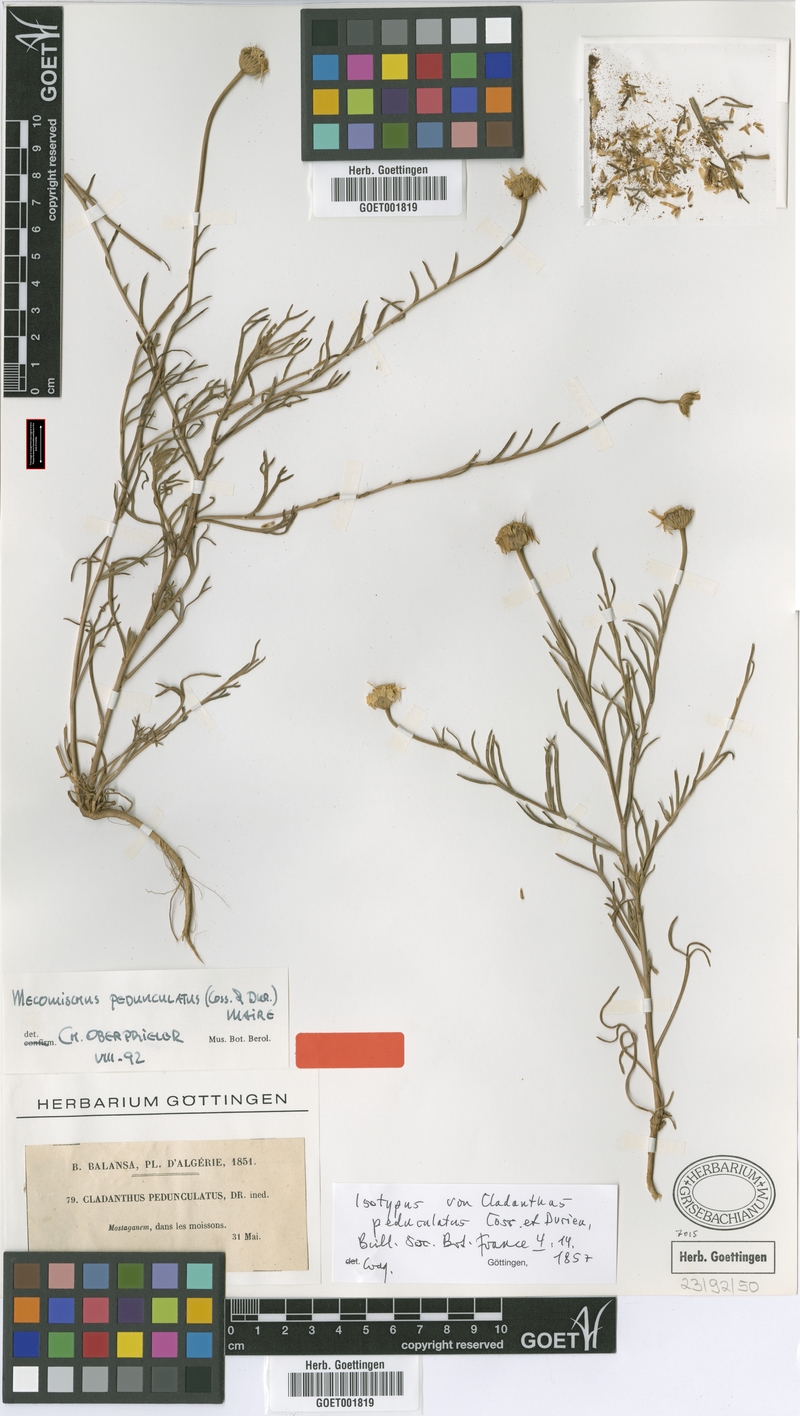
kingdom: Plantae
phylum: Tracheophyta
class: Magnoliopsida
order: Asterales
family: Asteraceae
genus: Mecomischus
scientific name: Mecomischus pedunculatus
